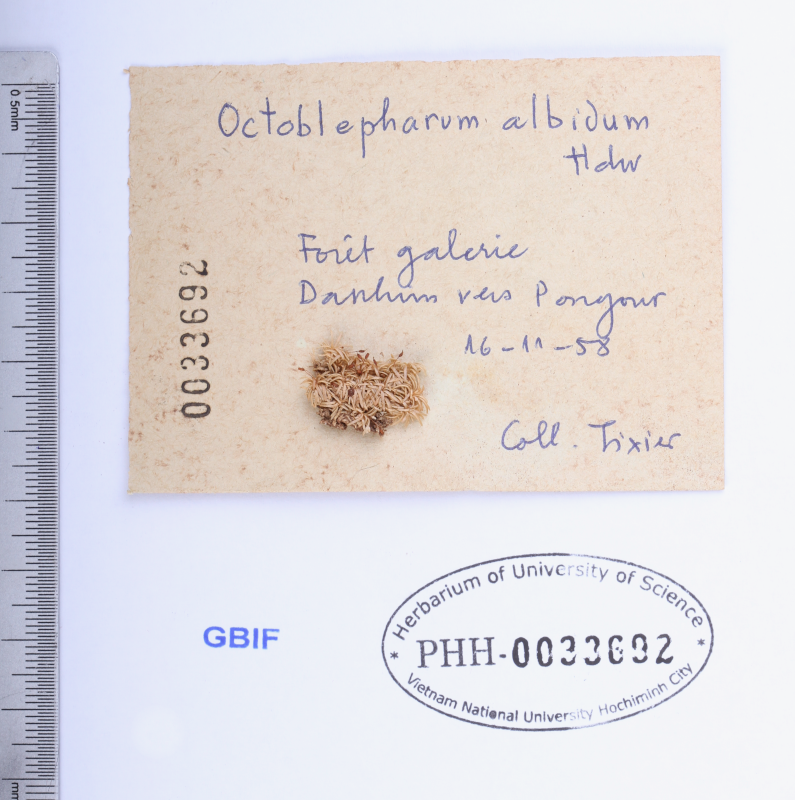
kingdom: Plantae
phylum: Bryophyta
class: Bryopsida
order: Dicranales
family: Octoblepharaceae
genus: Octoblepharum
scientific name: Octoblepharum albidum
